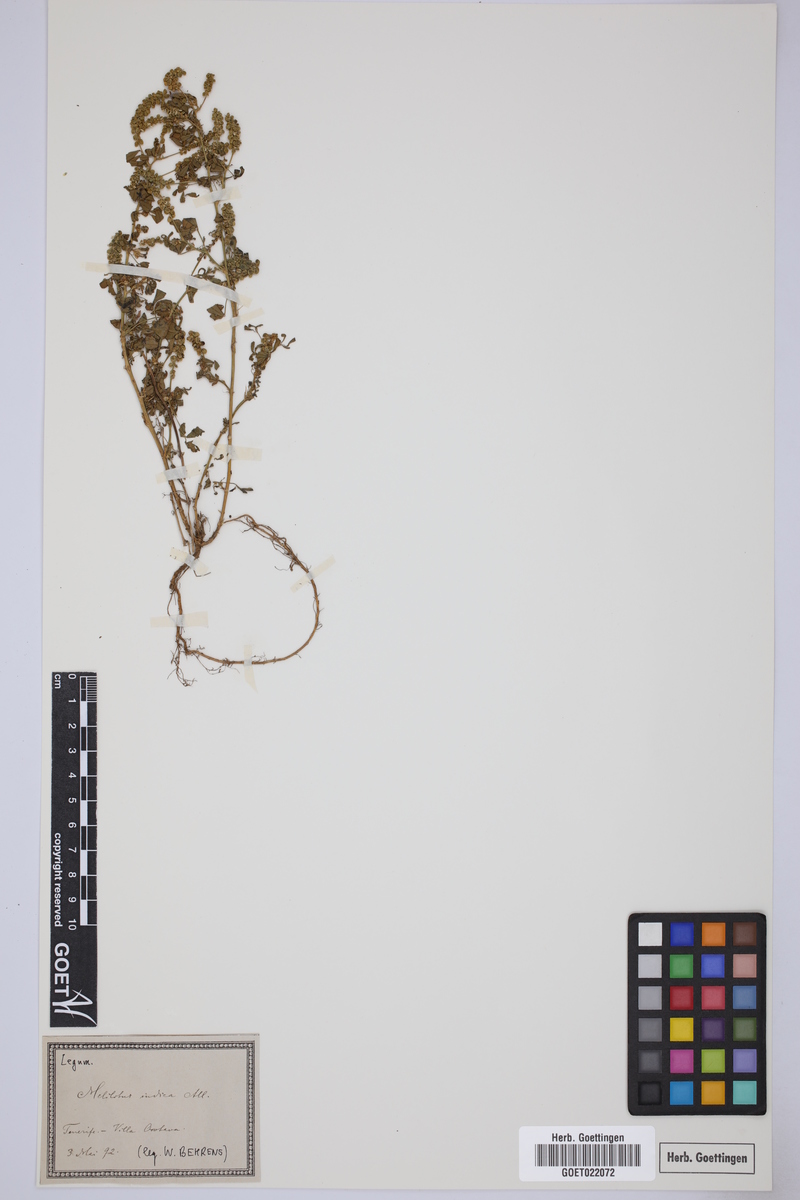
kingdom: Plantae
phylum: Tracheophyta
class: Magnoliopsida
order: Fabales
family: Fabaceae
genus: Melilotus
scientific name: Melilotus indicus
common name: Small melilot
